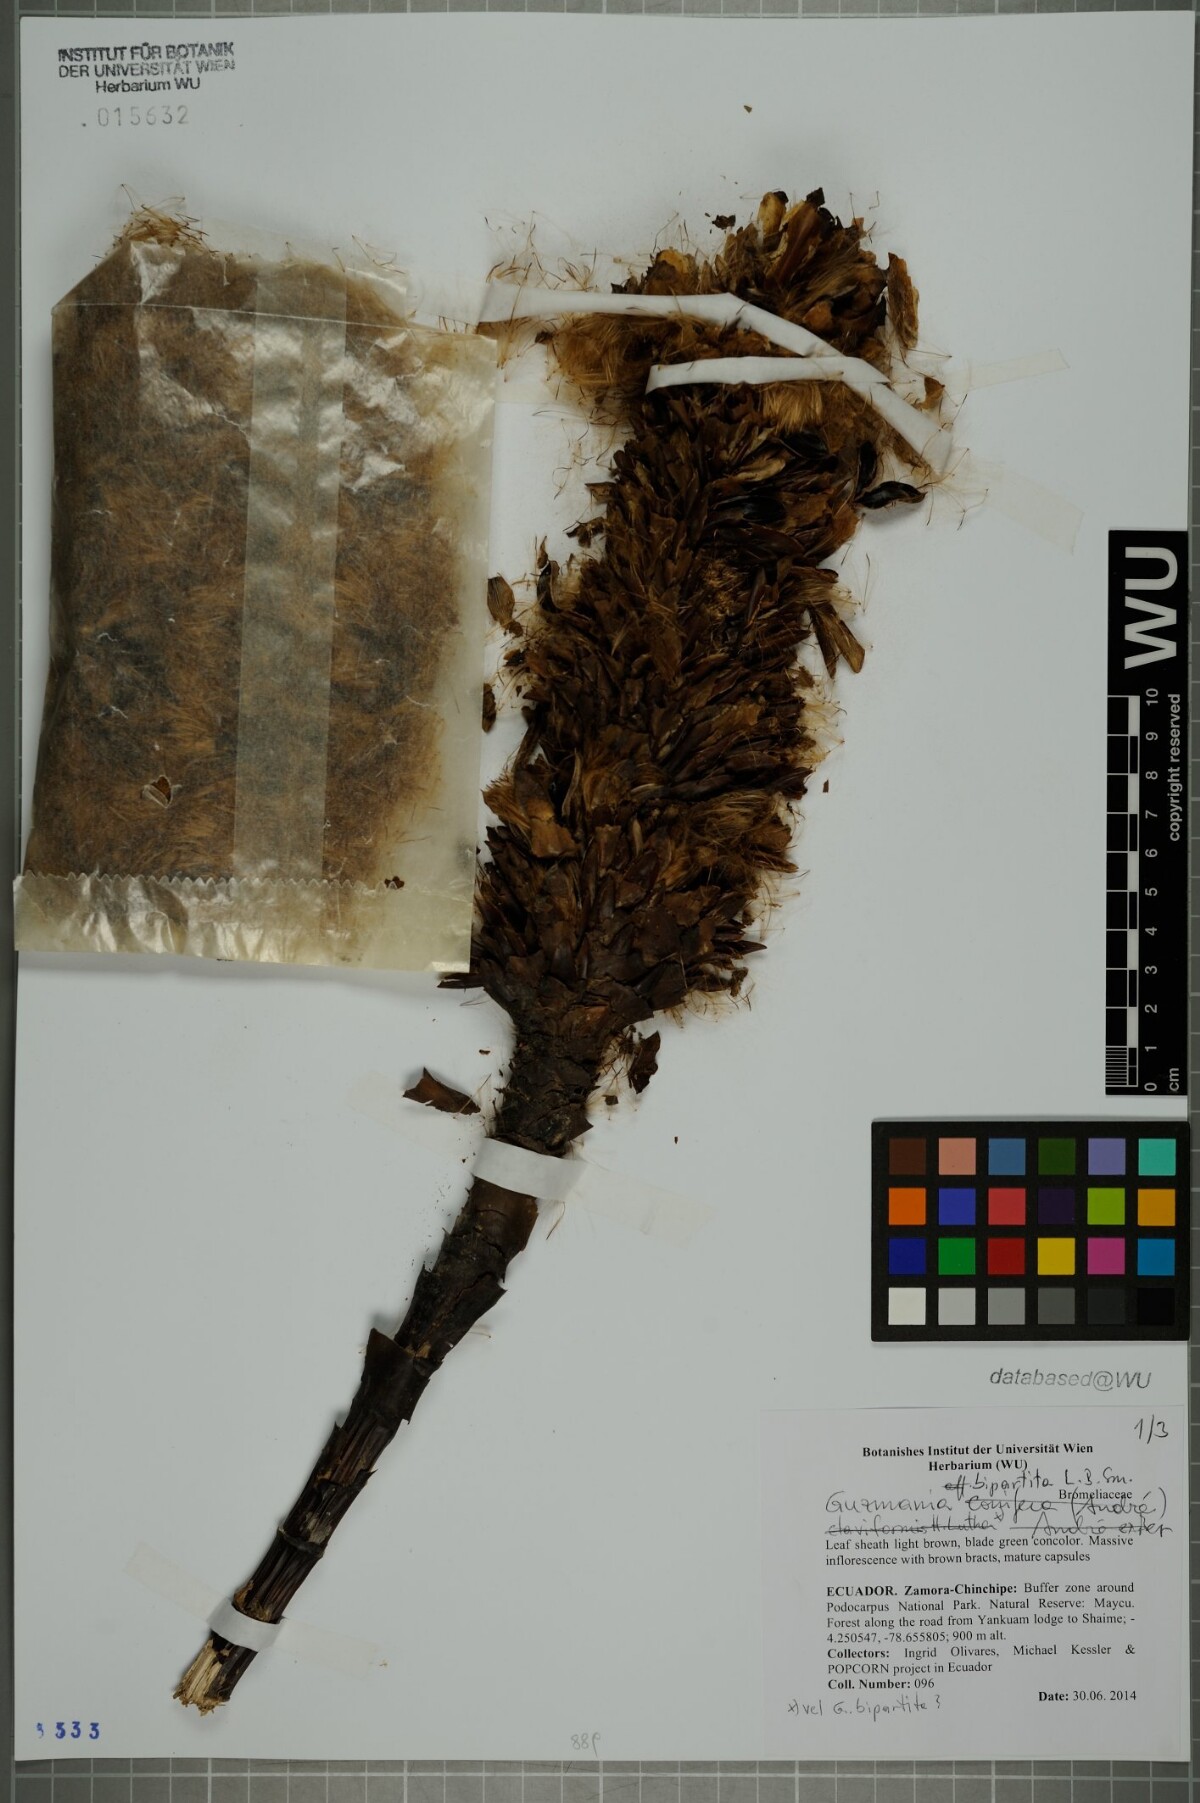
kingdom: Plantae
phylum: Tracheophyta
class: Liliopsida
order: Poales
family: Bromeliaceae
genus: Guzmania
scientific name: Guzmania bipartita
